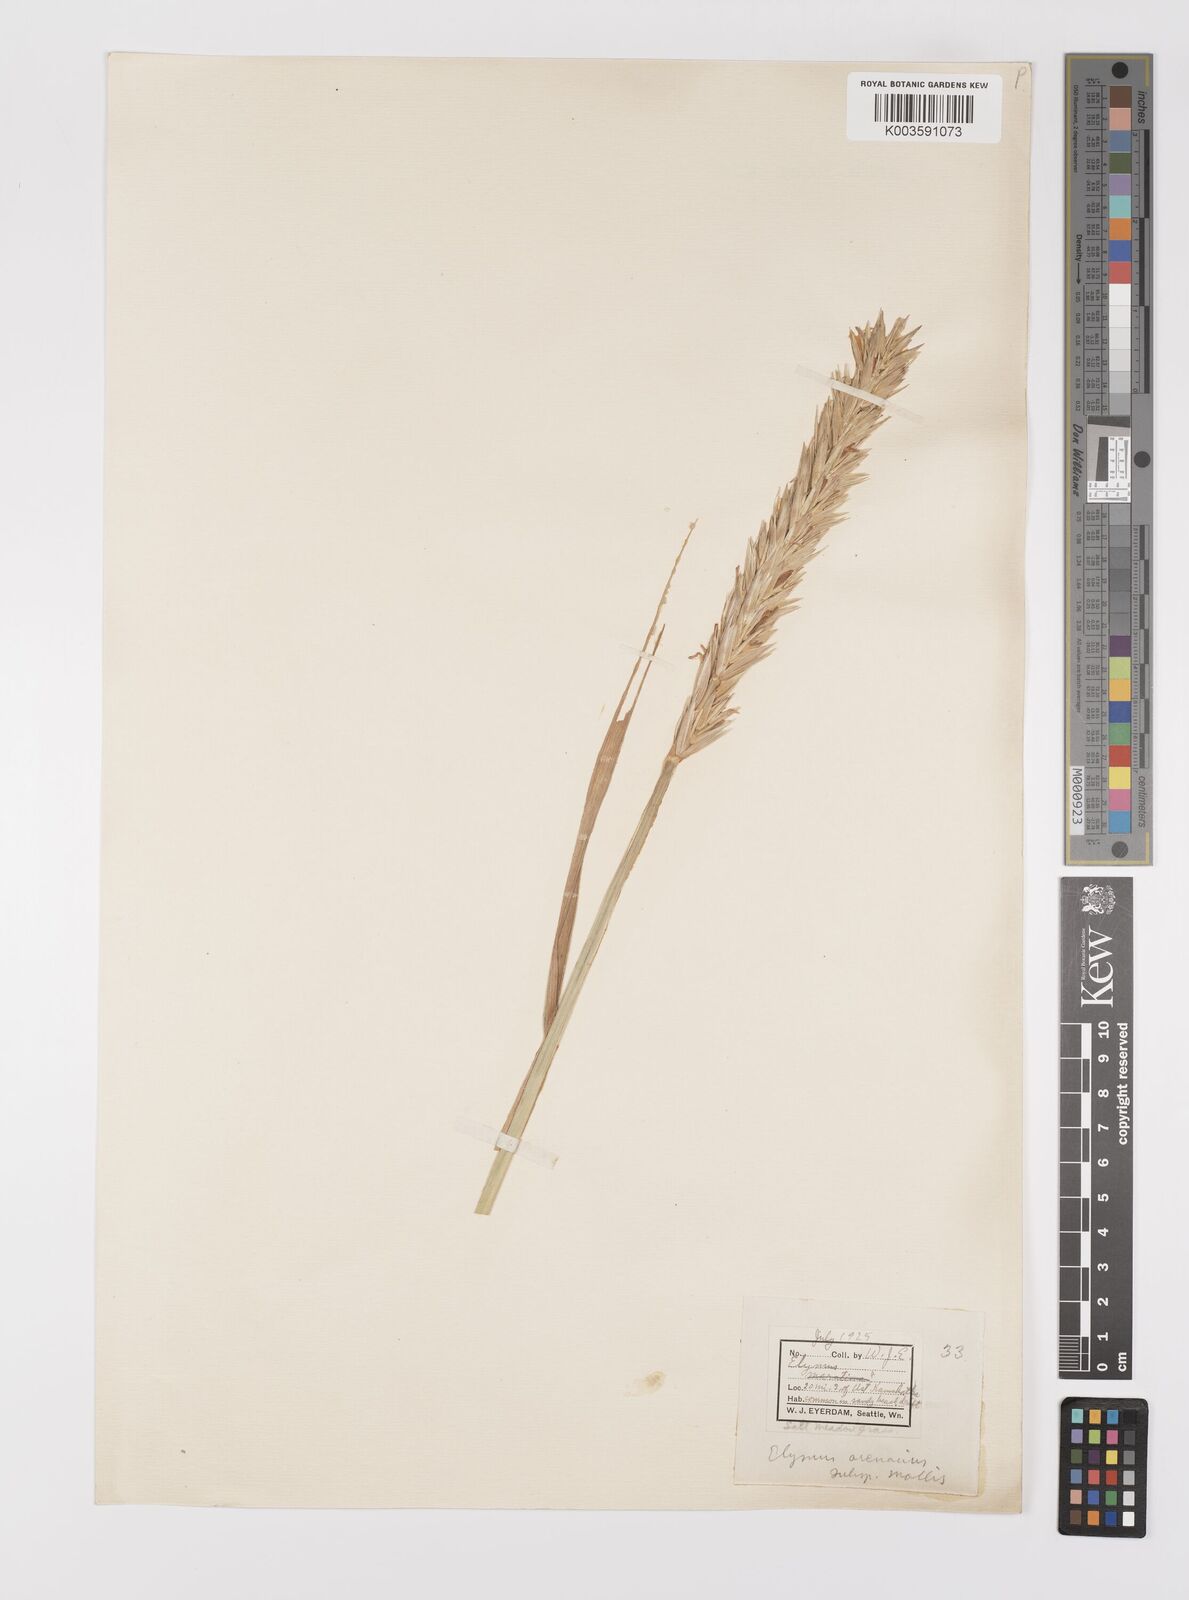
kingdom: Plantae
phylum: Tracheophyta
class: Liliopsida
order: Poales
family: Poaceae
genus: Leymus
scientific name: Leymus mollis
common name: American dune grass
